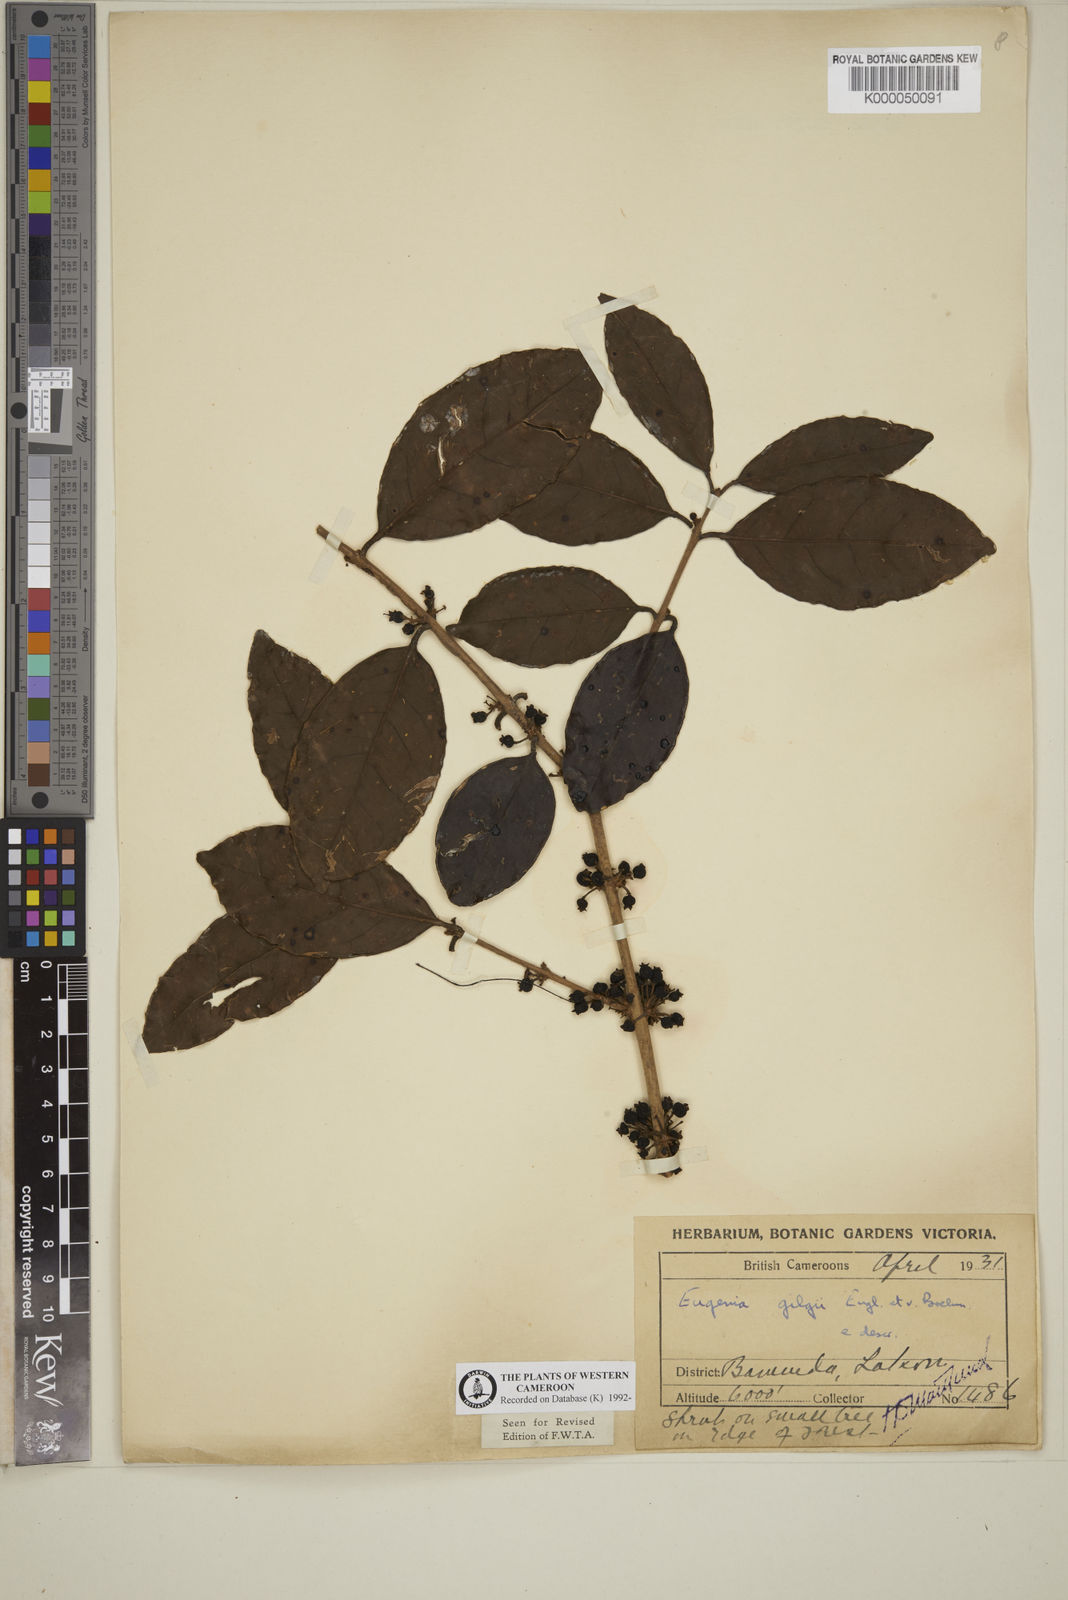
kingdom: Plantae
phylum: Tracheophyta
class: Magnoliopsida
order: Myrtales
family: Myrtaceae
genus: Eugenia
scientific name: Eugenia gilgii
